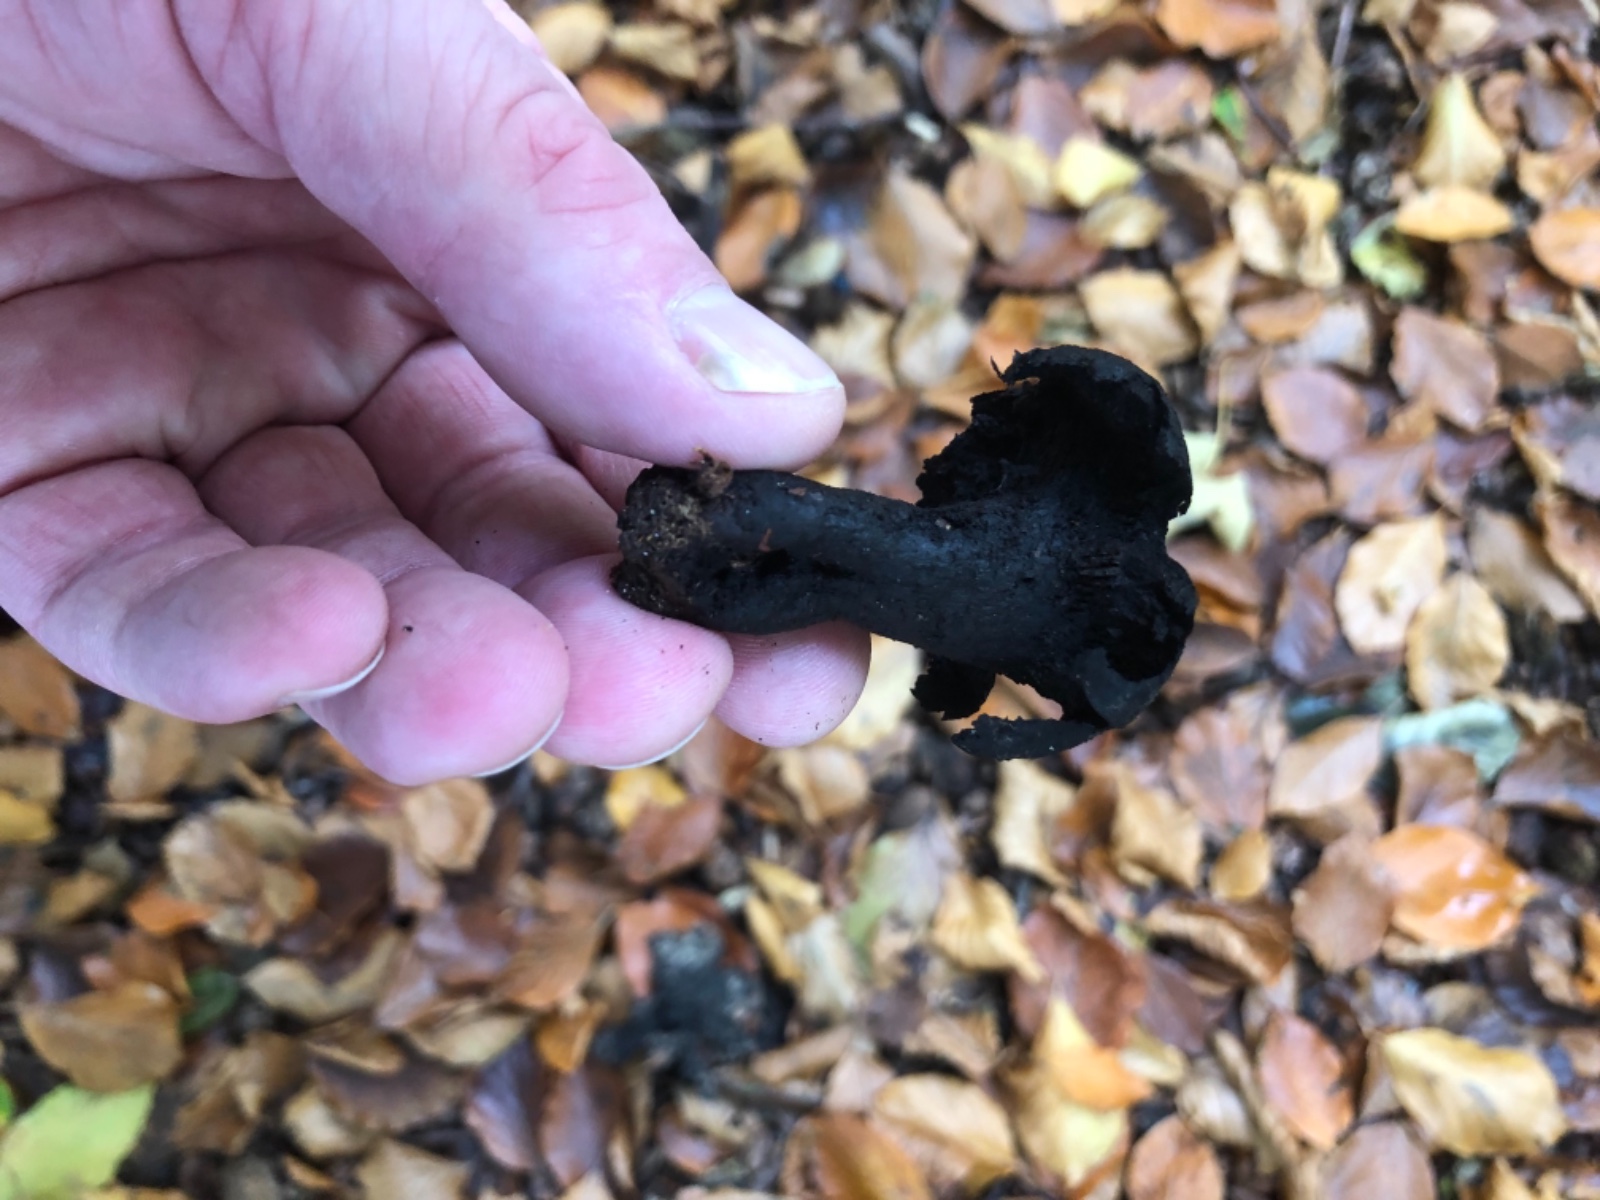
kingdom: Fungi
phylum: Basidiomycota
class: Agaricomycetes
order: Russulales
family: Russulaceae
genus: Russula
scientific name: Russula adusta
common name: sværtende skørhat
